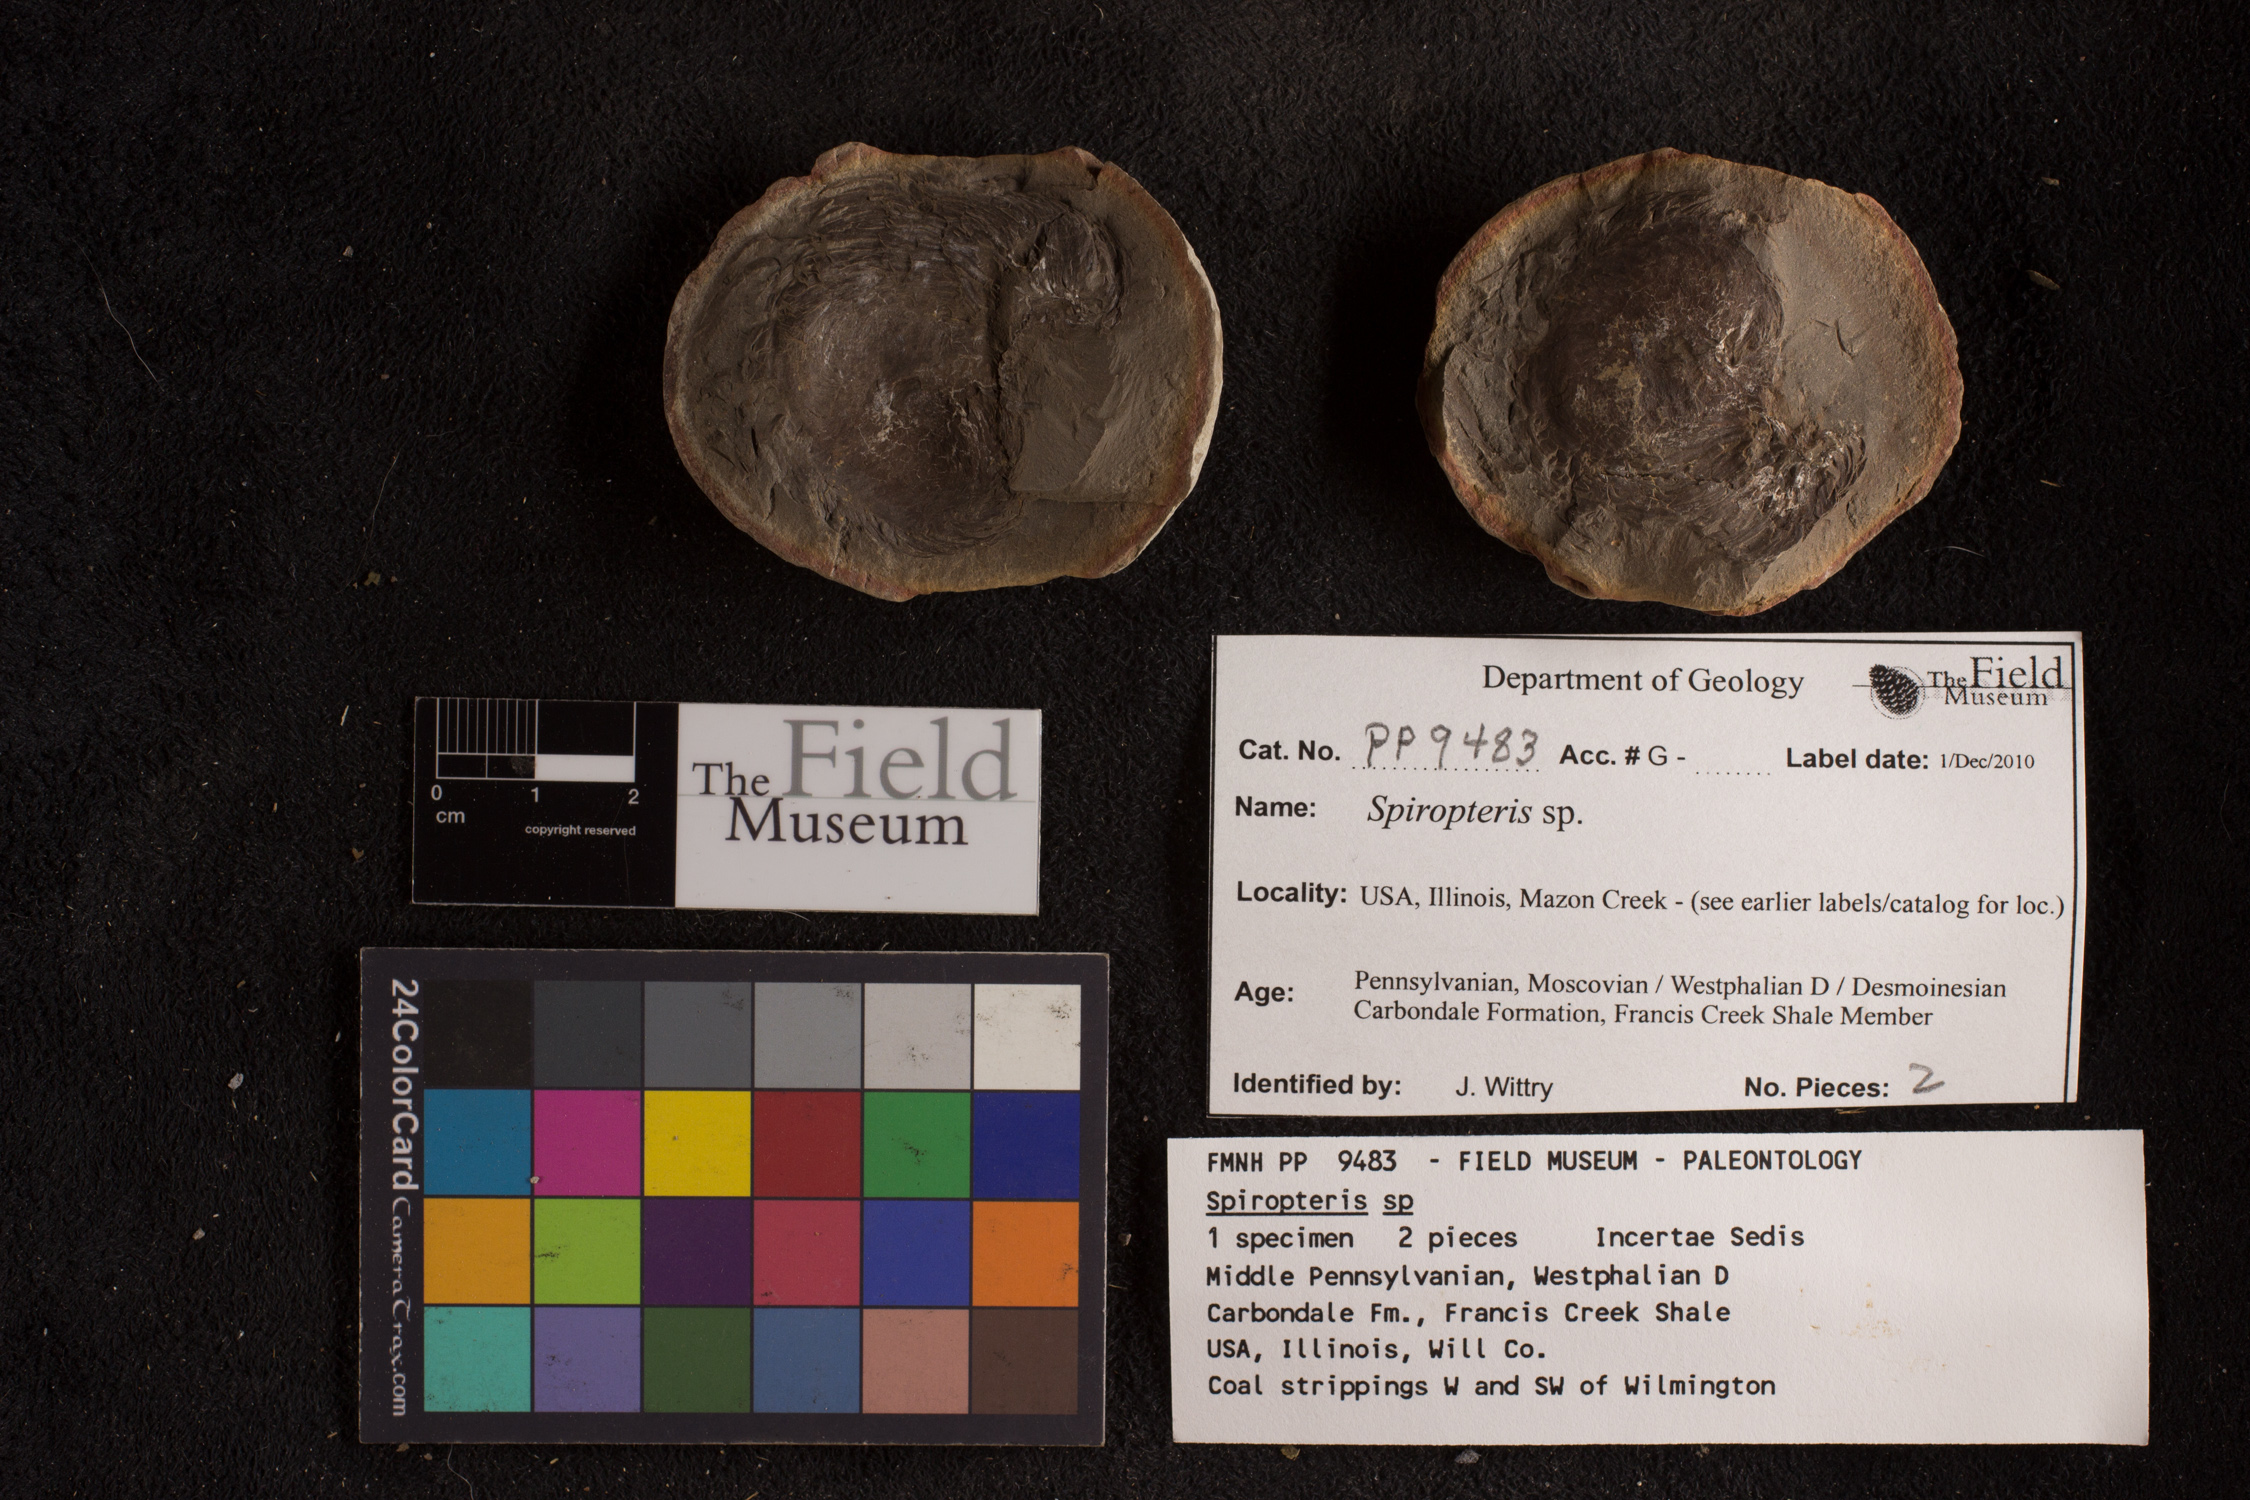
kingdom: Plantae
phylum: Tracheophyta
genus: Spiropteris
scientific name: Spiropteris
